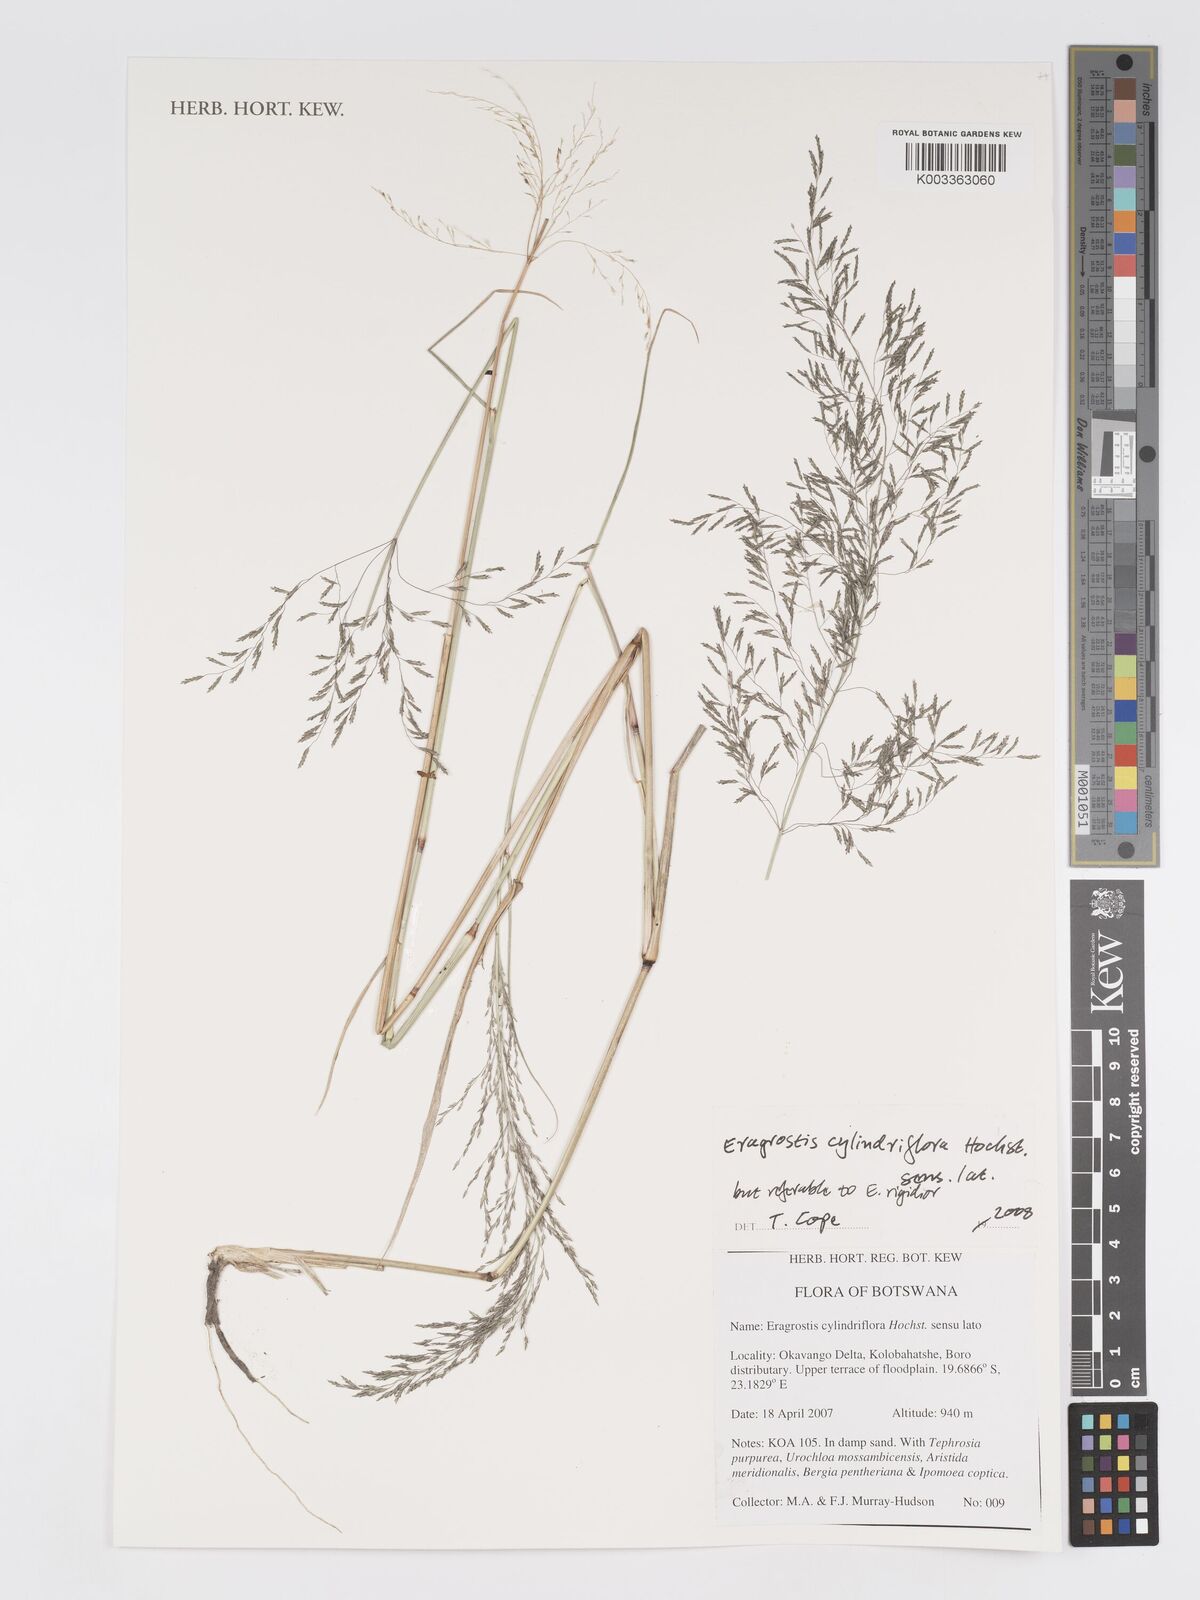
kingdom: Plantae
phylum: Tracheophyta
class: Liliopsida
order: Poales
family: Poaceae
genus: Eragrostis
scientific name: Eragrostis cylindriflora
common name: Cylinderflower lovegrass
